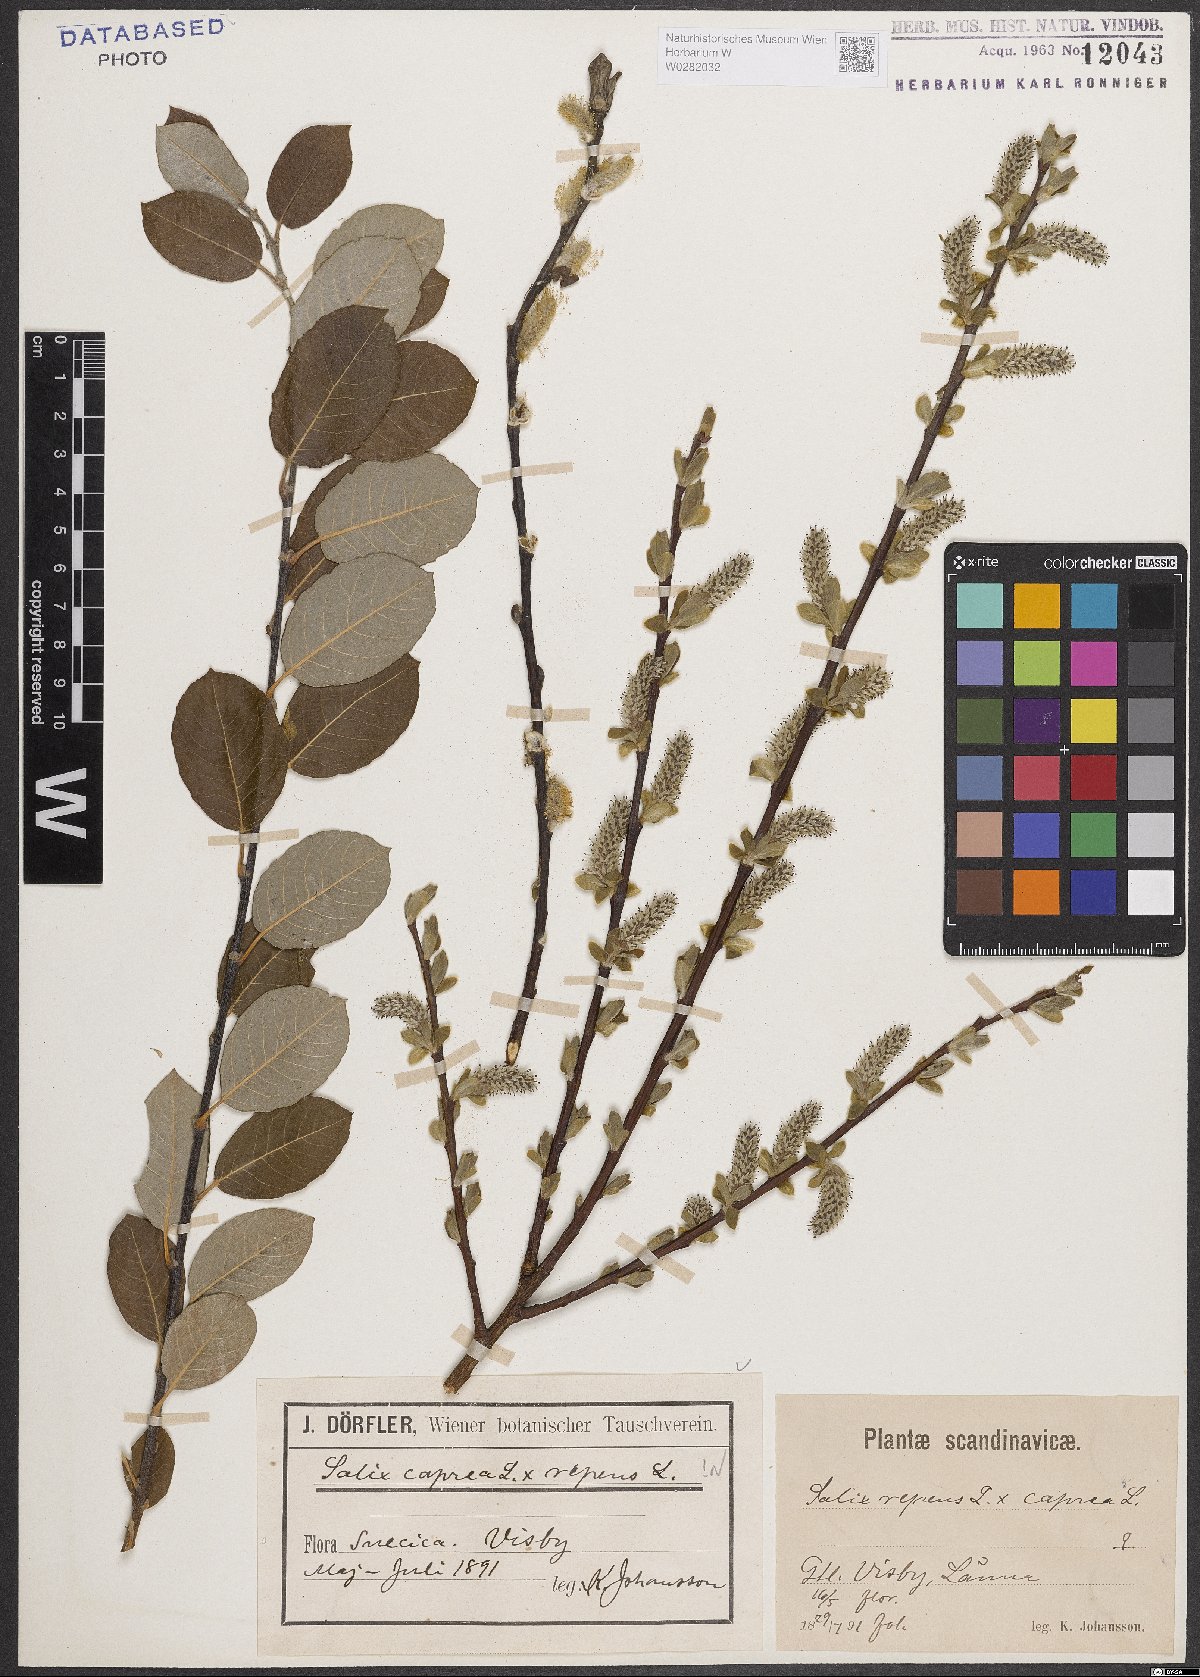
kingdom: Plantae
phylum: Tracheophyta
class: Magnoliopsida
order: Malpighiales
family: Salicaceae
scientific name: Salicaceae
